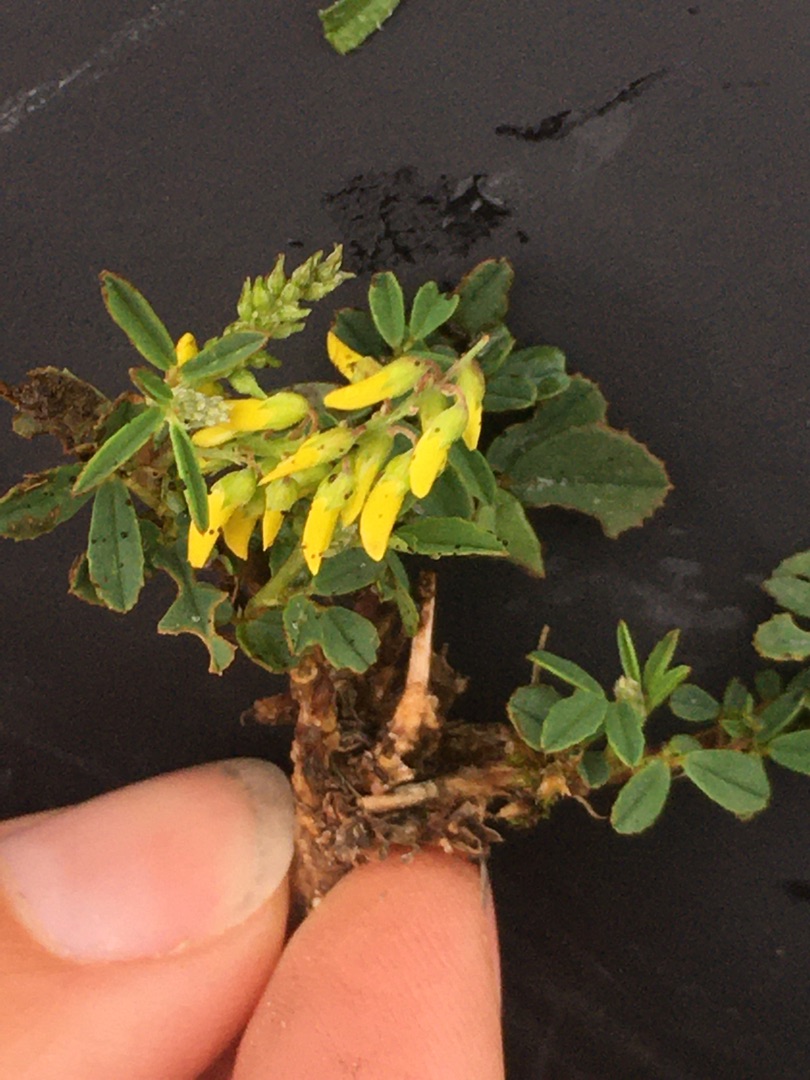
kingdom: Plantae
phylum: Tracheophyta
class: Magnoliopsida
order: Fabales
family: Fabaceae
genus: Melilotus
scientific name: Melilotus altissimus
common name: Høj stenkløver
